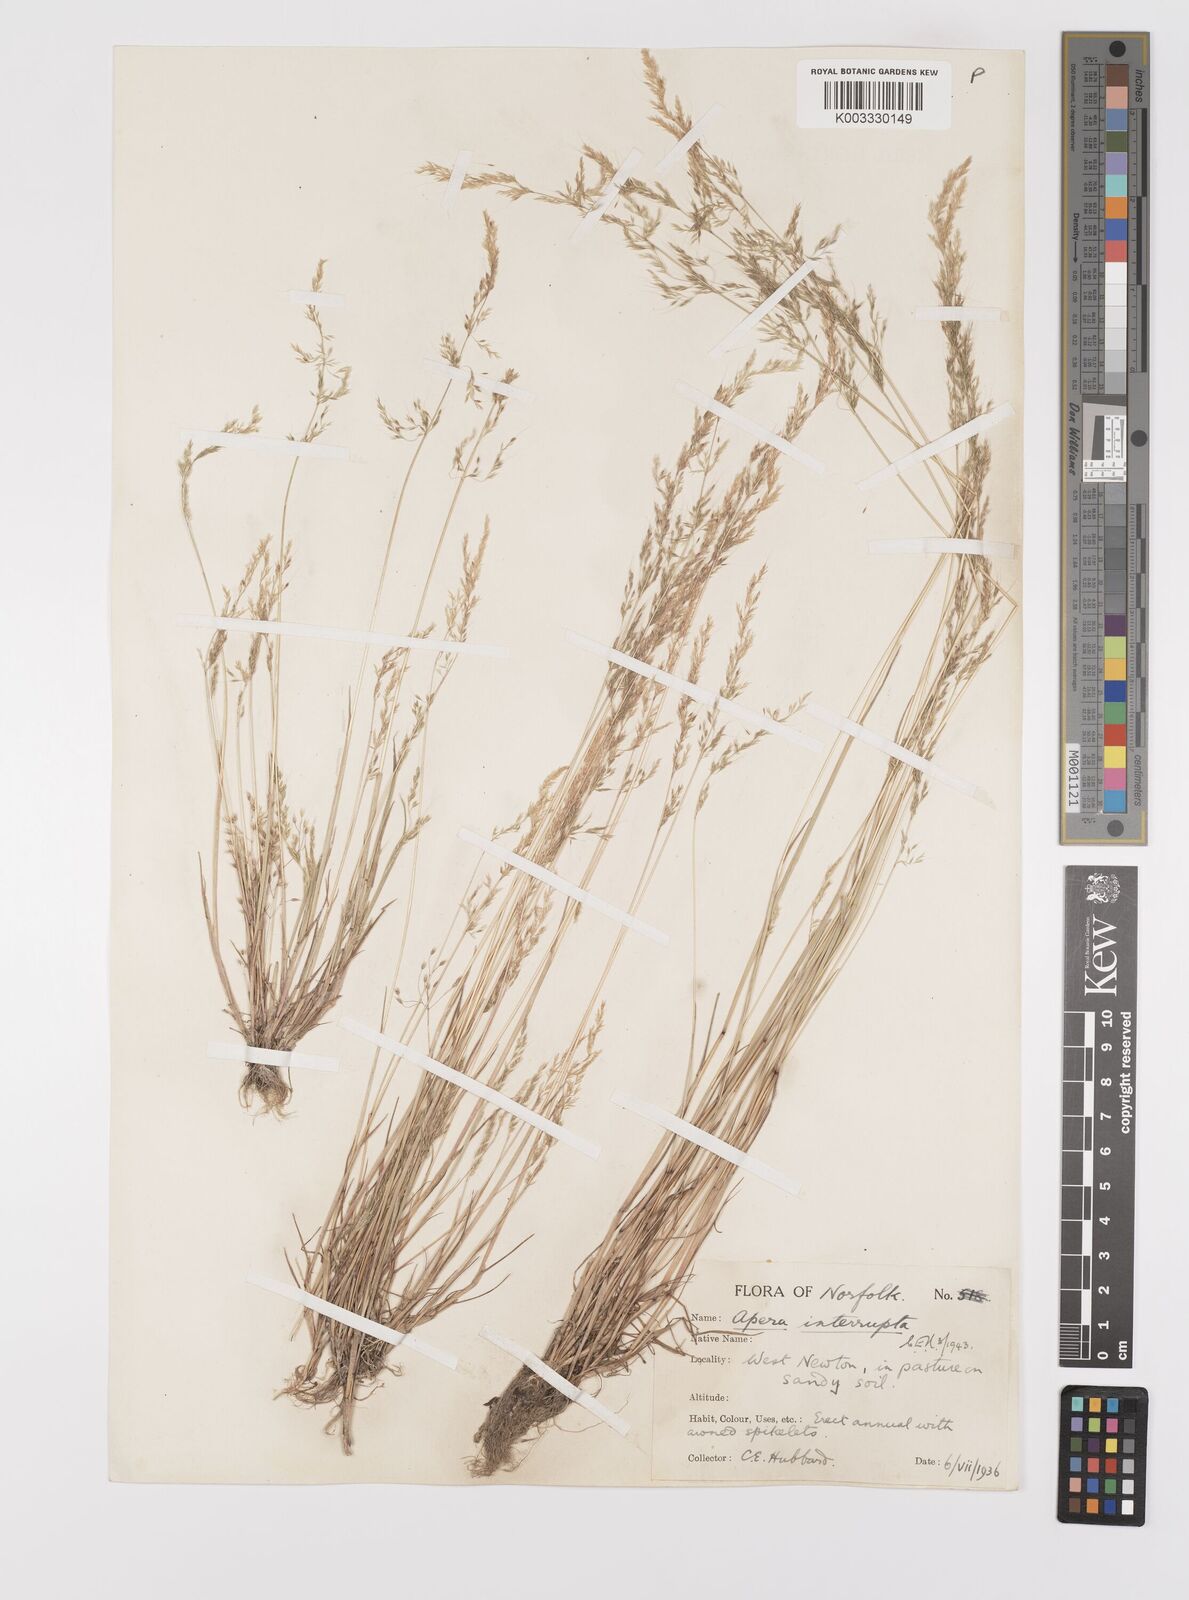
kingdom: Plantae
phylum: Tracheophyta
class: Liliopsida
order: Poales
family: Poaceae
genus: Apera
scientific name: Apera interrupta
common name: Dense silky-bent
